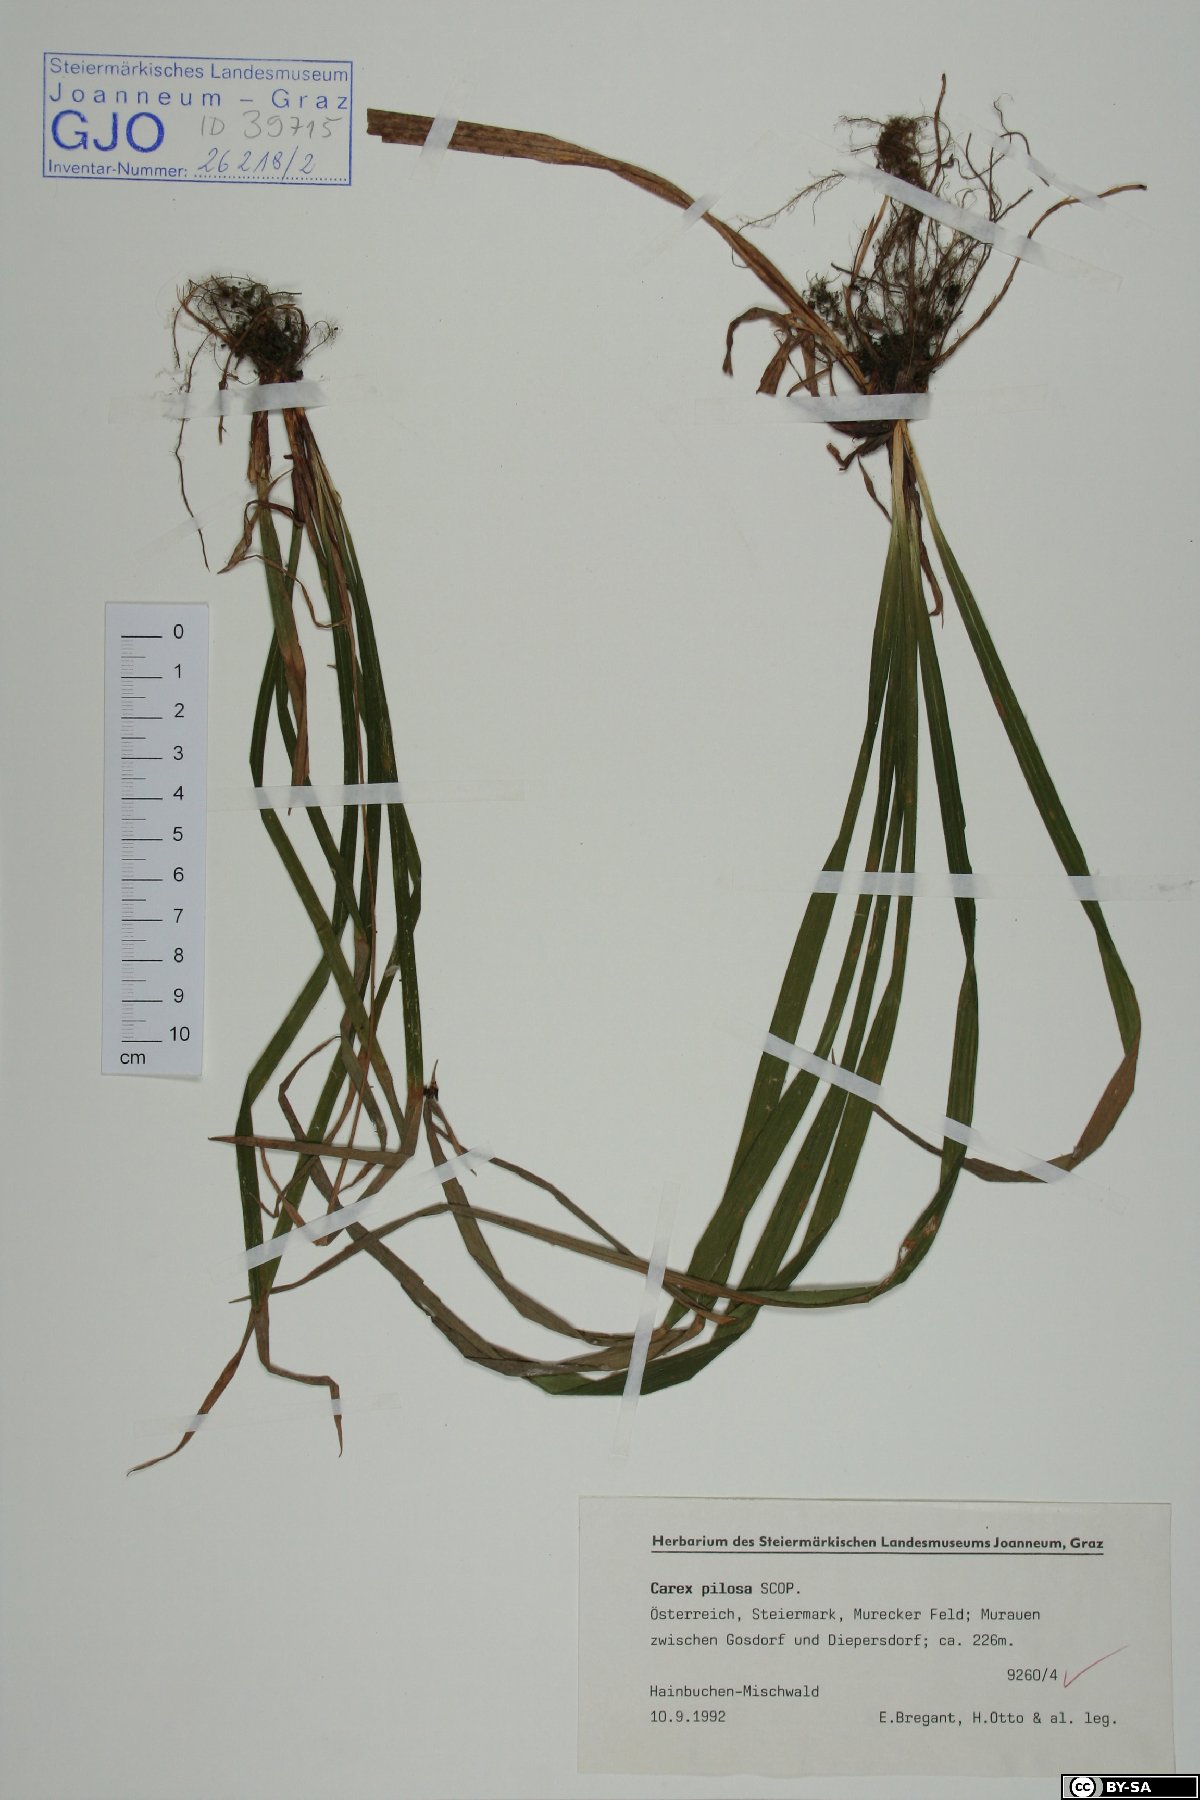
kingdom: Plantae
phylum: Tracheophyta
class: Liliopsida
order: Poales
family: Cyperaceae
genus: Carex
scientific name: Carex pilosa
